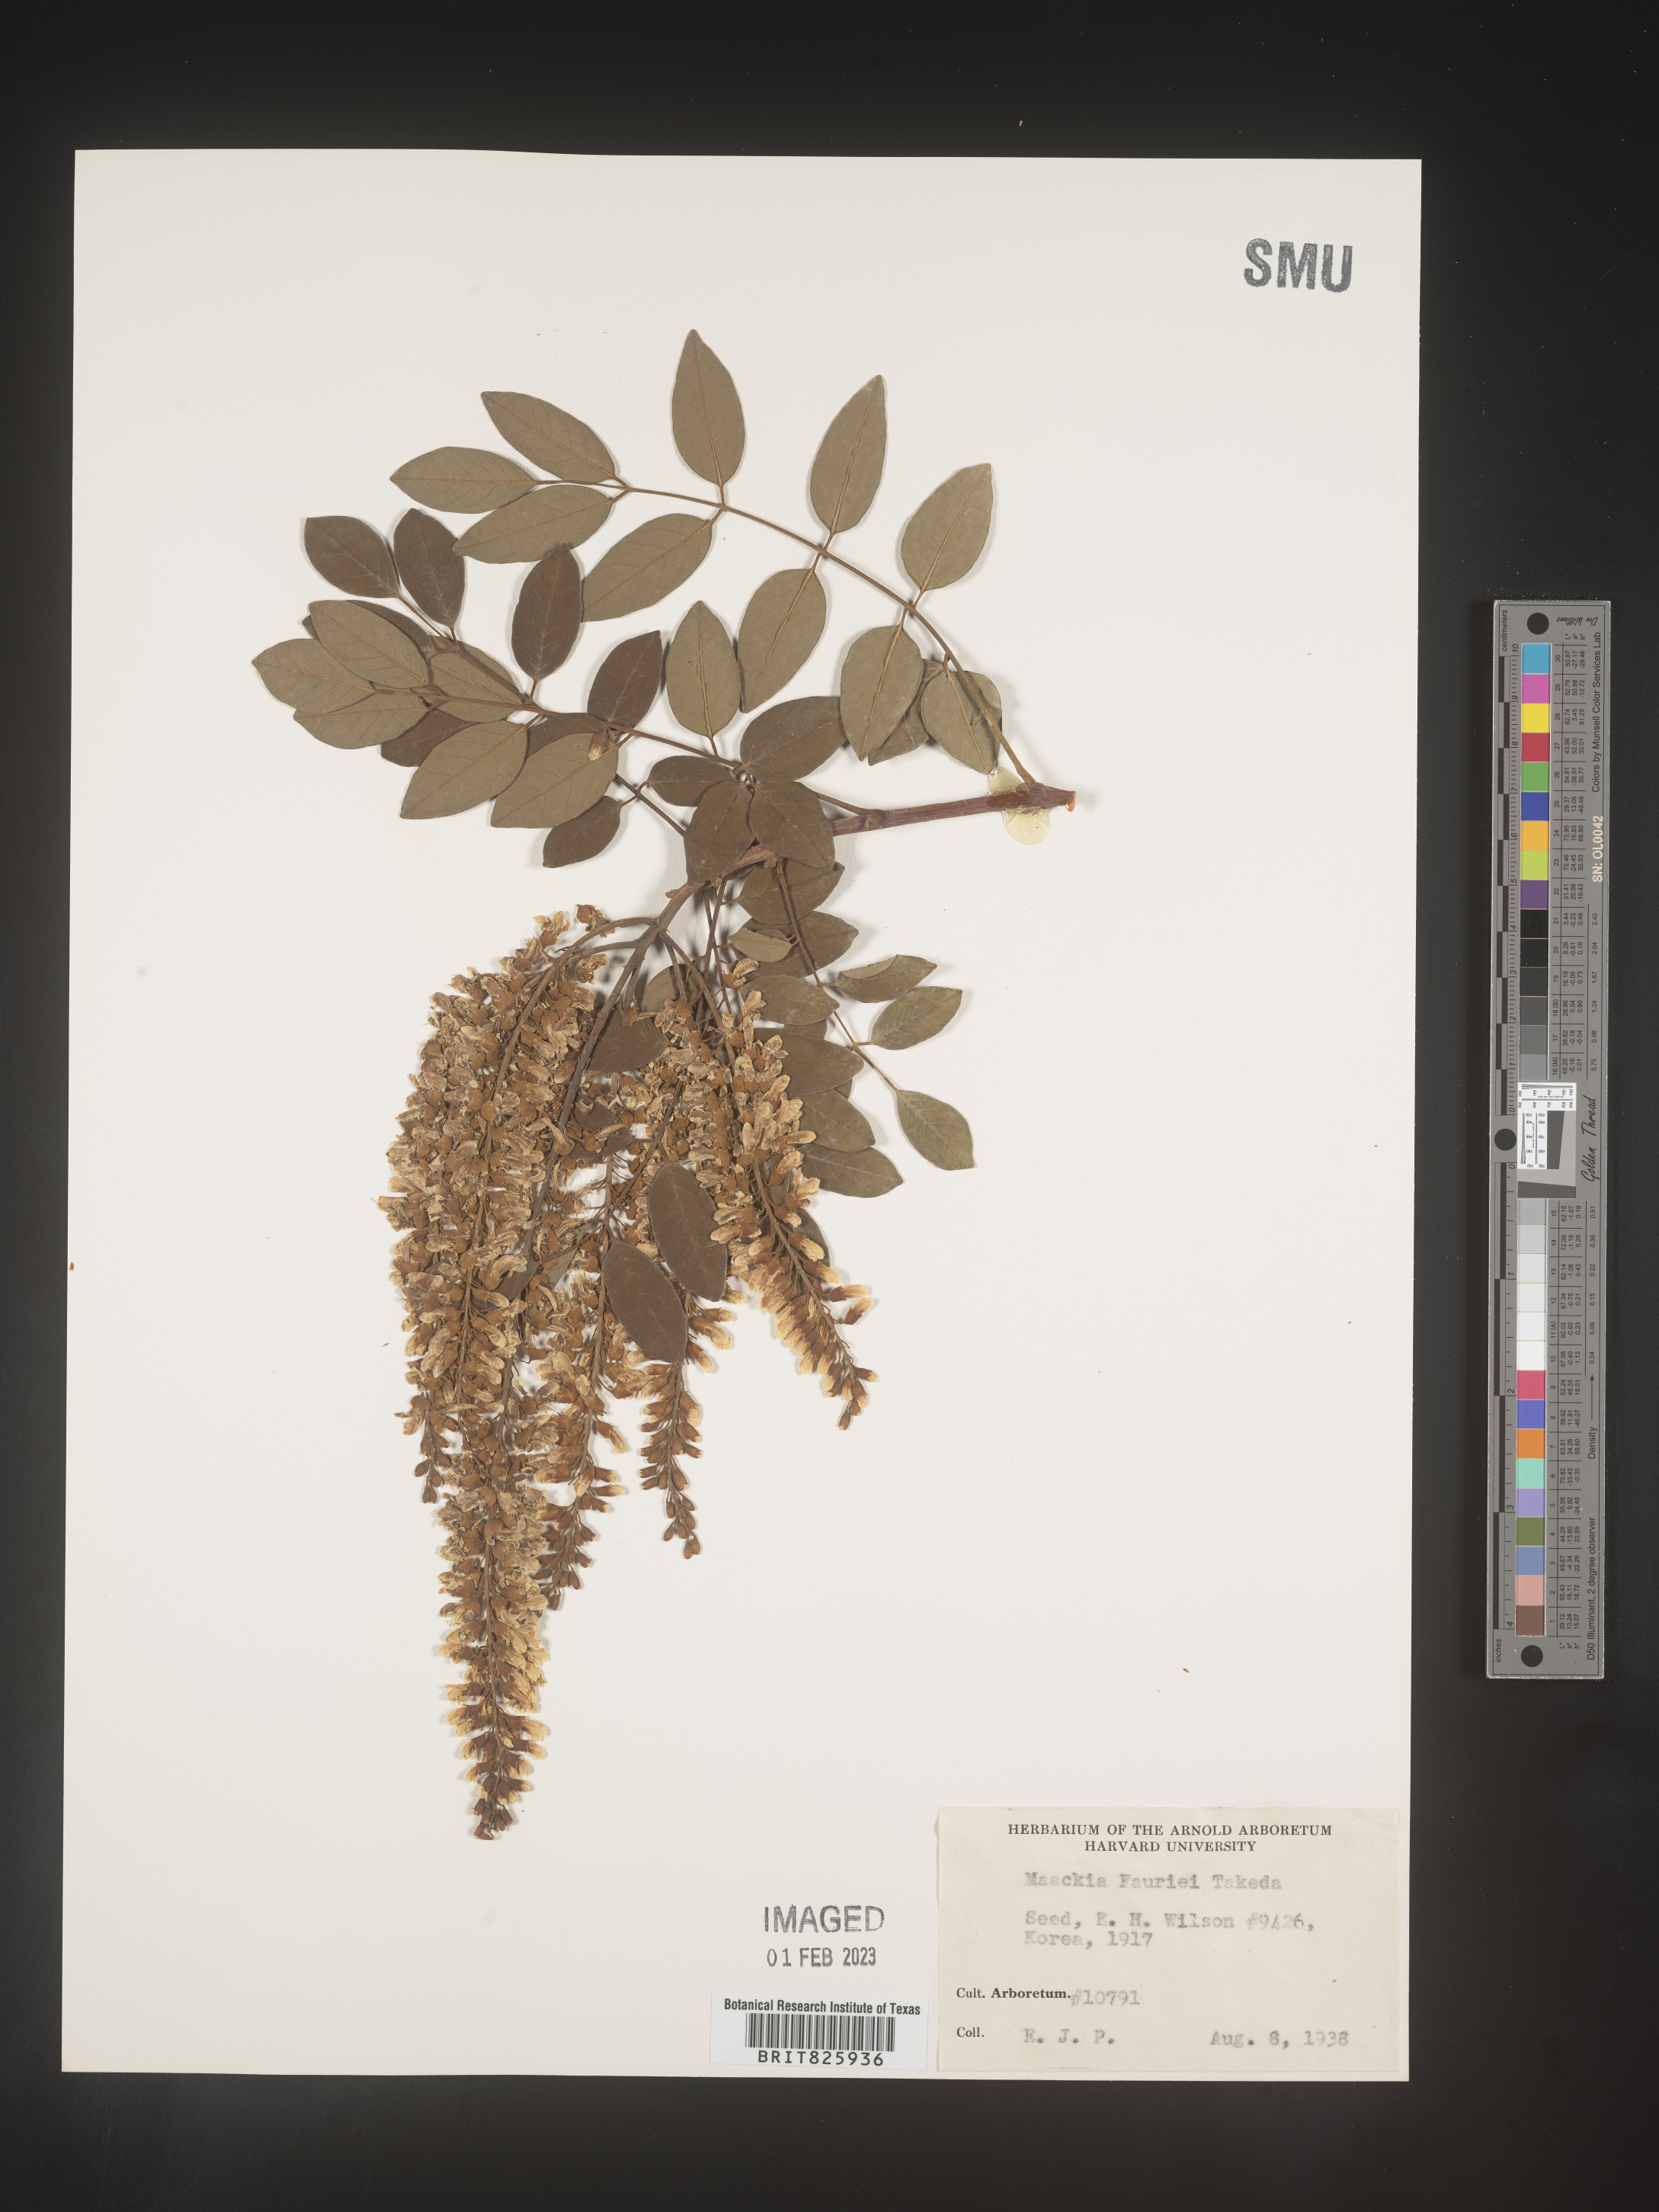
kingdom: Plantae
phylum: Tracheophyta
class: Magnoliopsida
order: Fabales
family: Fabaceae
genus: Maackia
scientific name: Maackia
